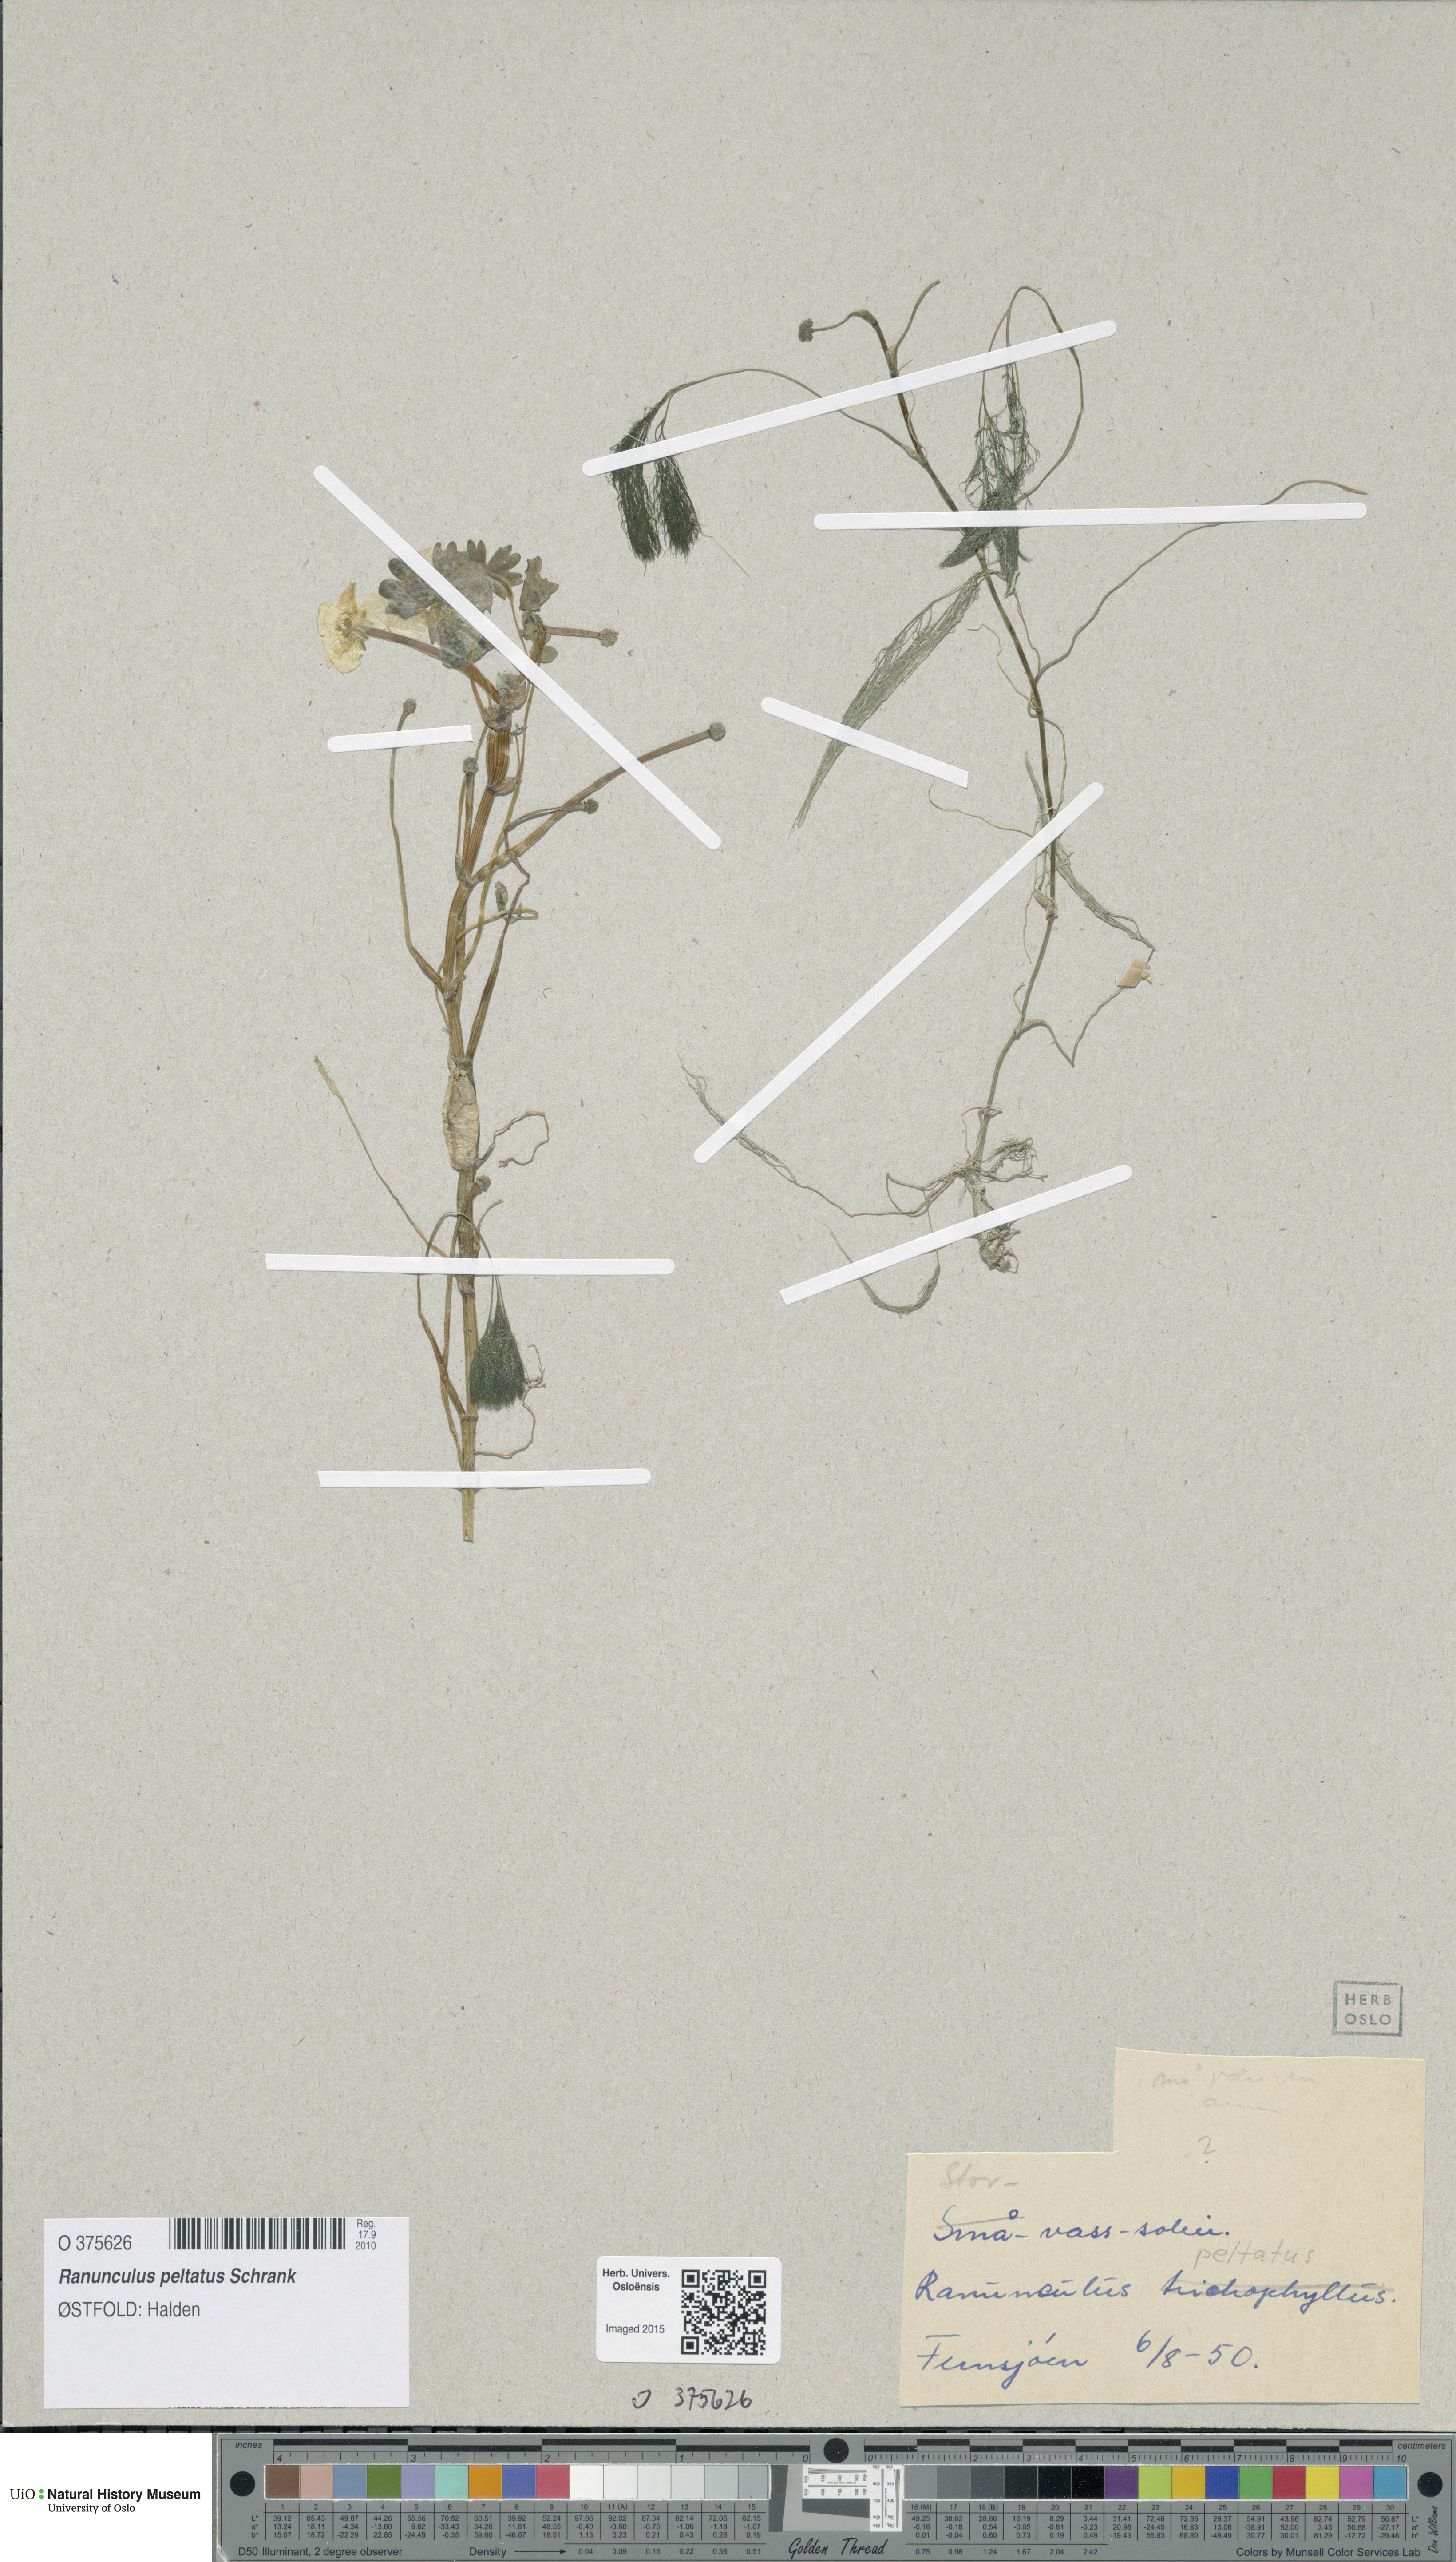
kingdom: Plantae
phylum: Tracheophyta
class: Magnoliopsida
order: Ranunculales
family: Ranunculaceae
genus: Ranunculus
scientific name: Ranunculus schmalhausenii
